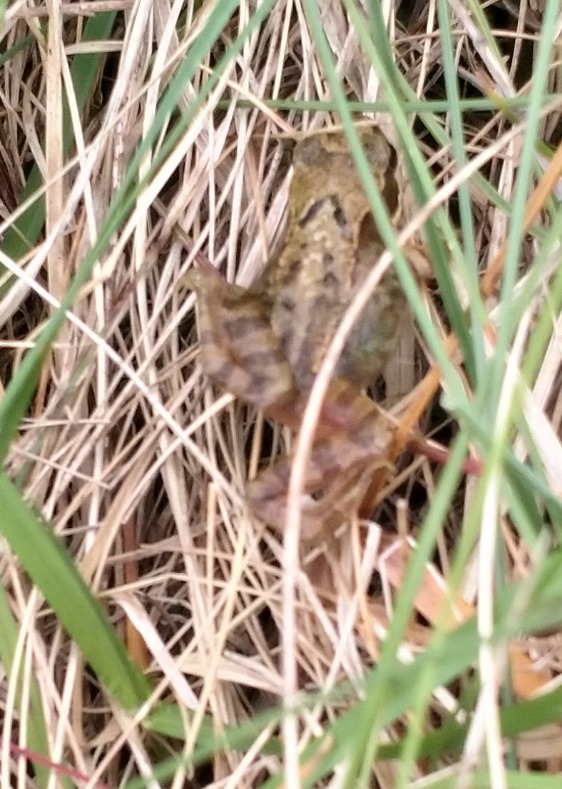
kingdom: Animalia
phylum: Chordata
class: Amphibia
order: Anura
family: Ranidae
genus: Rana
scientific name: Rana temporaria
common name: Butsnudet frø
